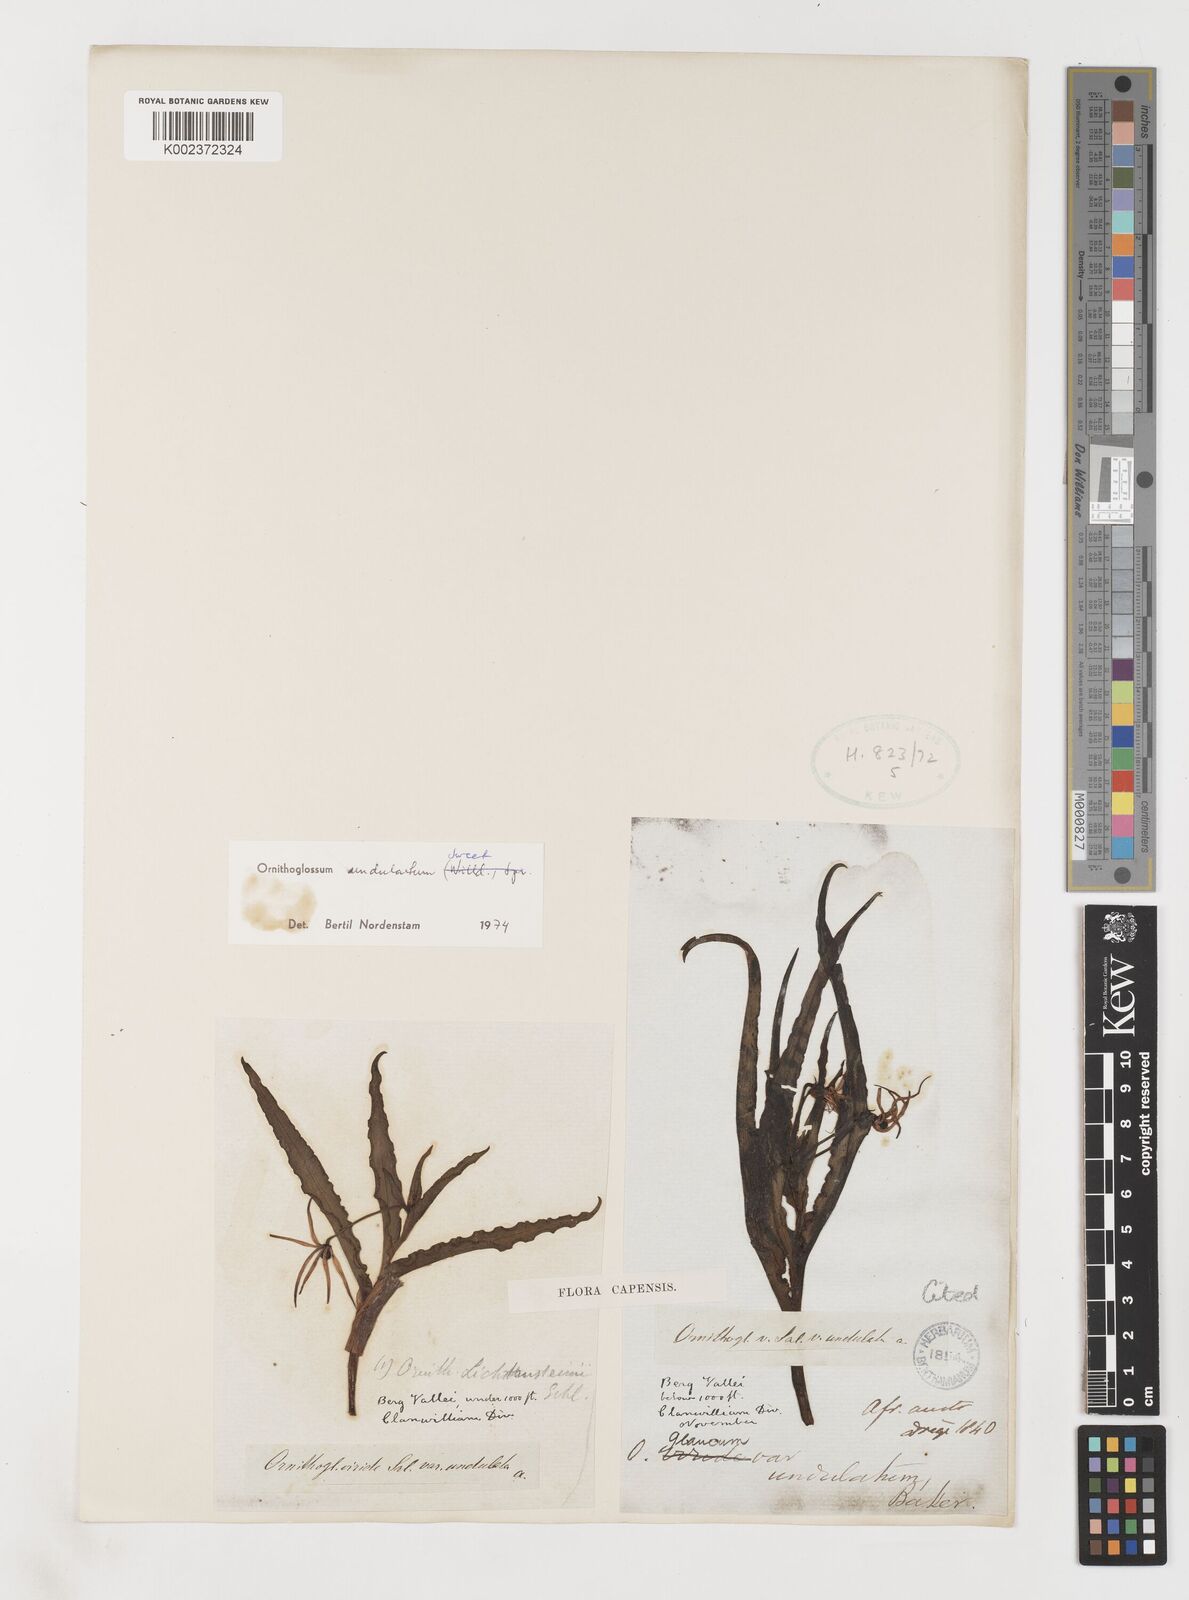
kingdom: Plantae
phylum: Tracheophyta
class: Liliopsida
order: Liliales
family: Colchicaceae
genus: Ornithoglossum
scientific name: Ornithoglossum undulatum
